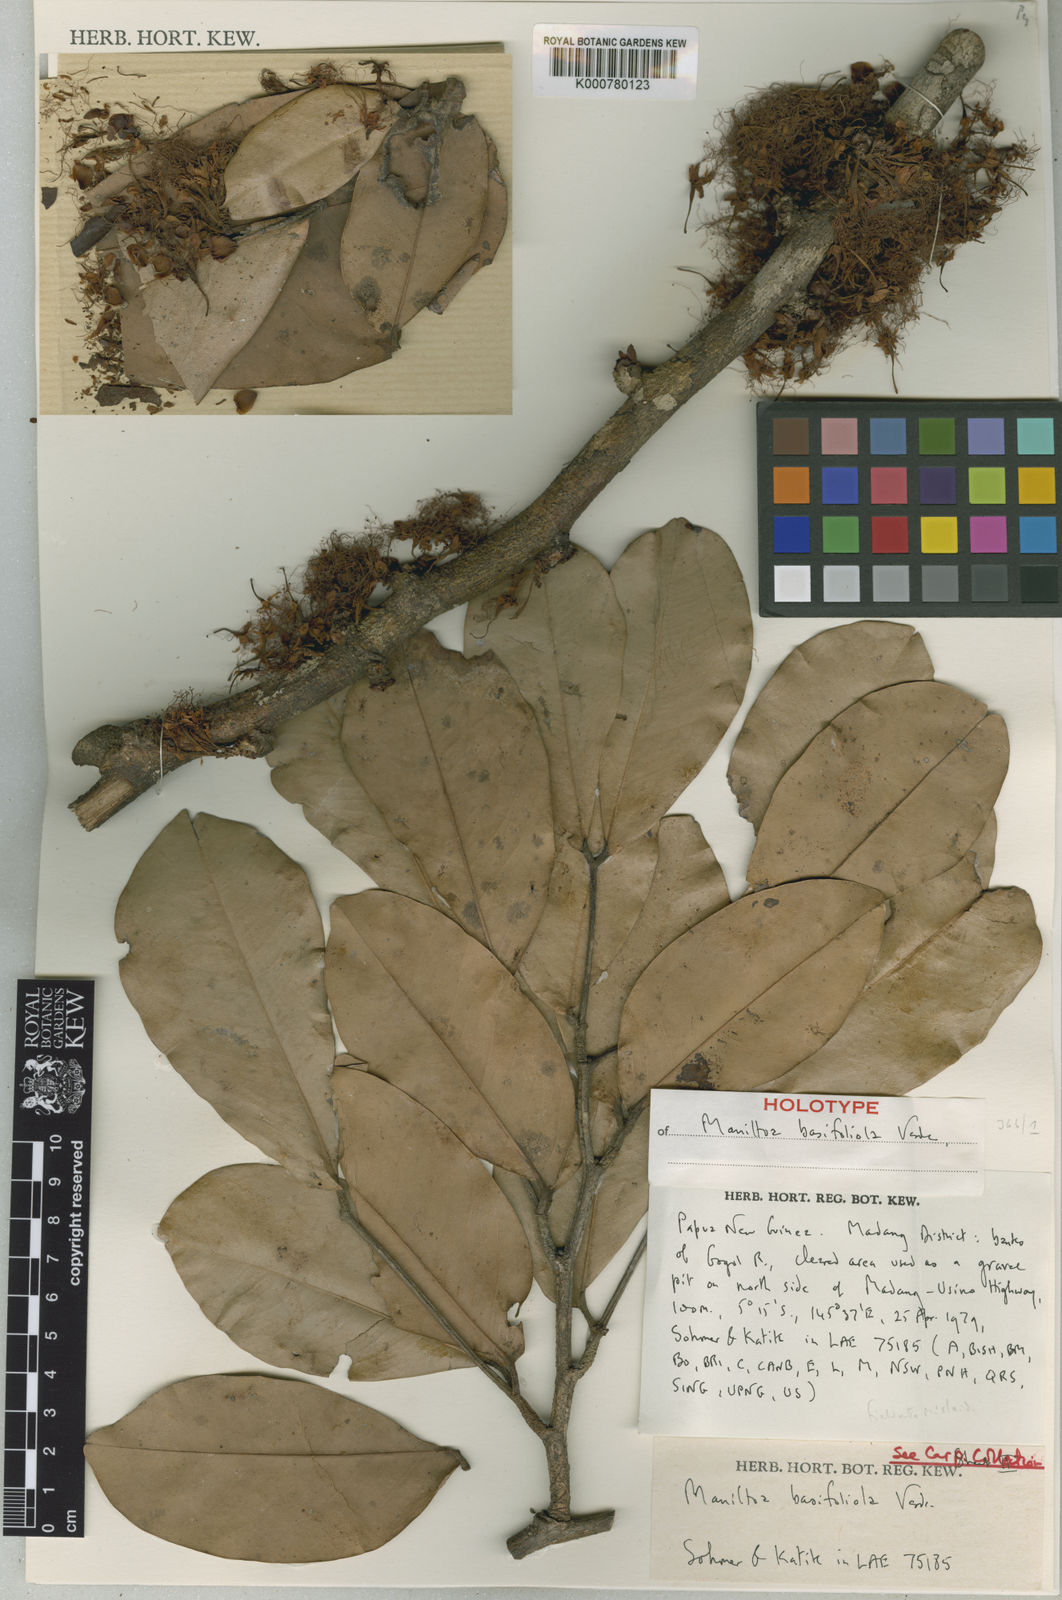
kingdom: Plantae
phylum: Tracheophyta
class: Magnoliopsida
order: Fabales
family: Fabaceae
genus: Cynometra
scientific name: Cynometra basifoliola
